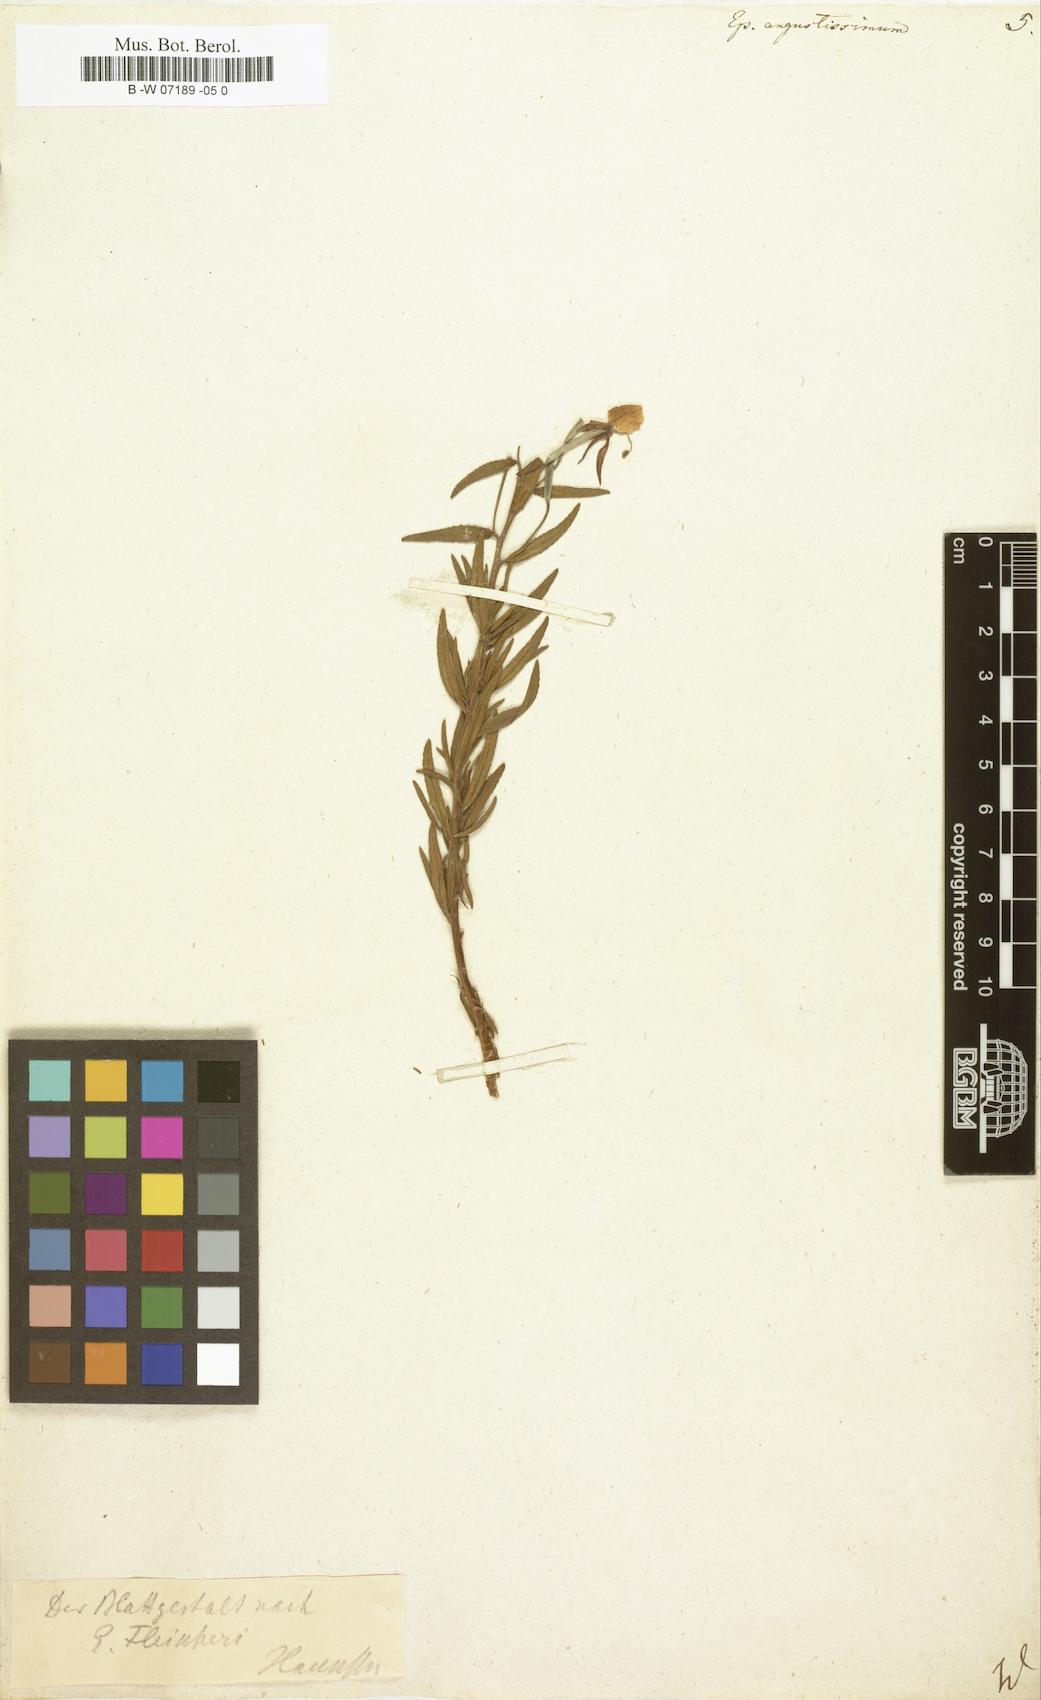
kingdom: Plantae
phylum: Tracheophyta
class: Magnoliopsida
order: Myrtales
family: Onagraceae
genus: Chamaenerion
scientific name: Chamaenerion
